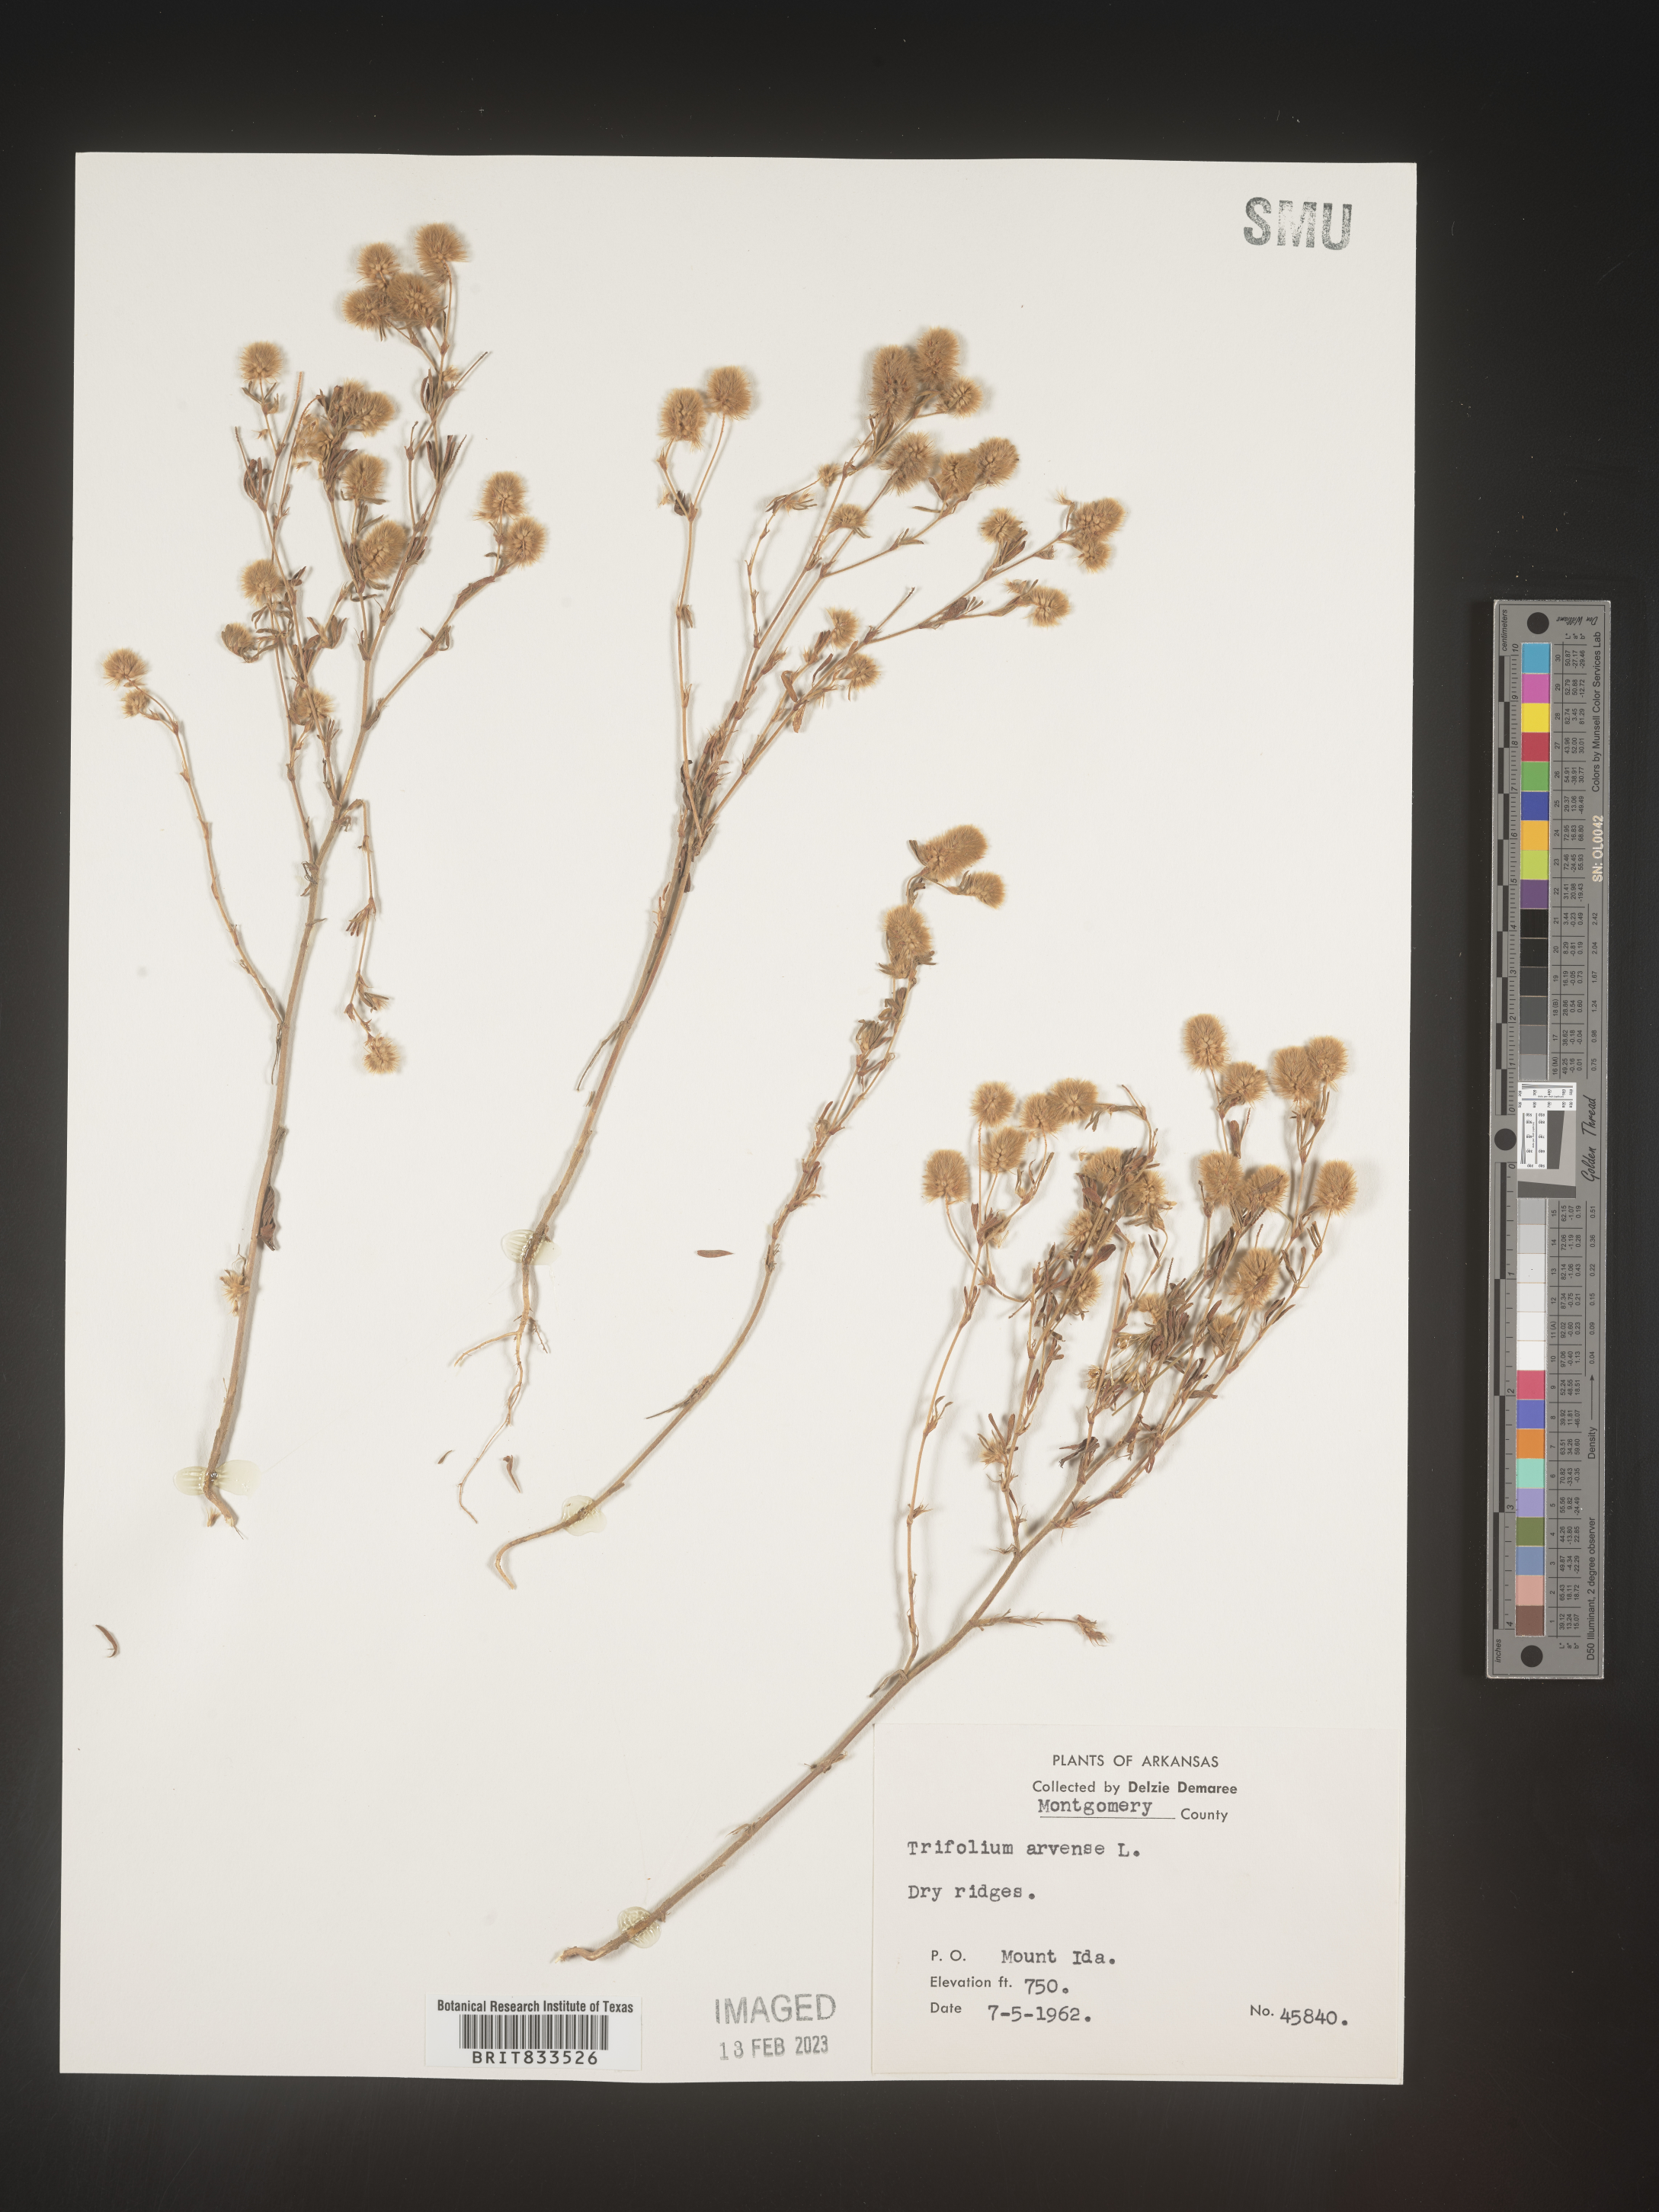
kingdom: Plantae
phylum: Tracheophyta
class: Magnoliopsida
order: Fabales
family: Fabaceae
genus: Trifolium
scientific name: Trifolium arvense
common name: Hare's-foot clover
